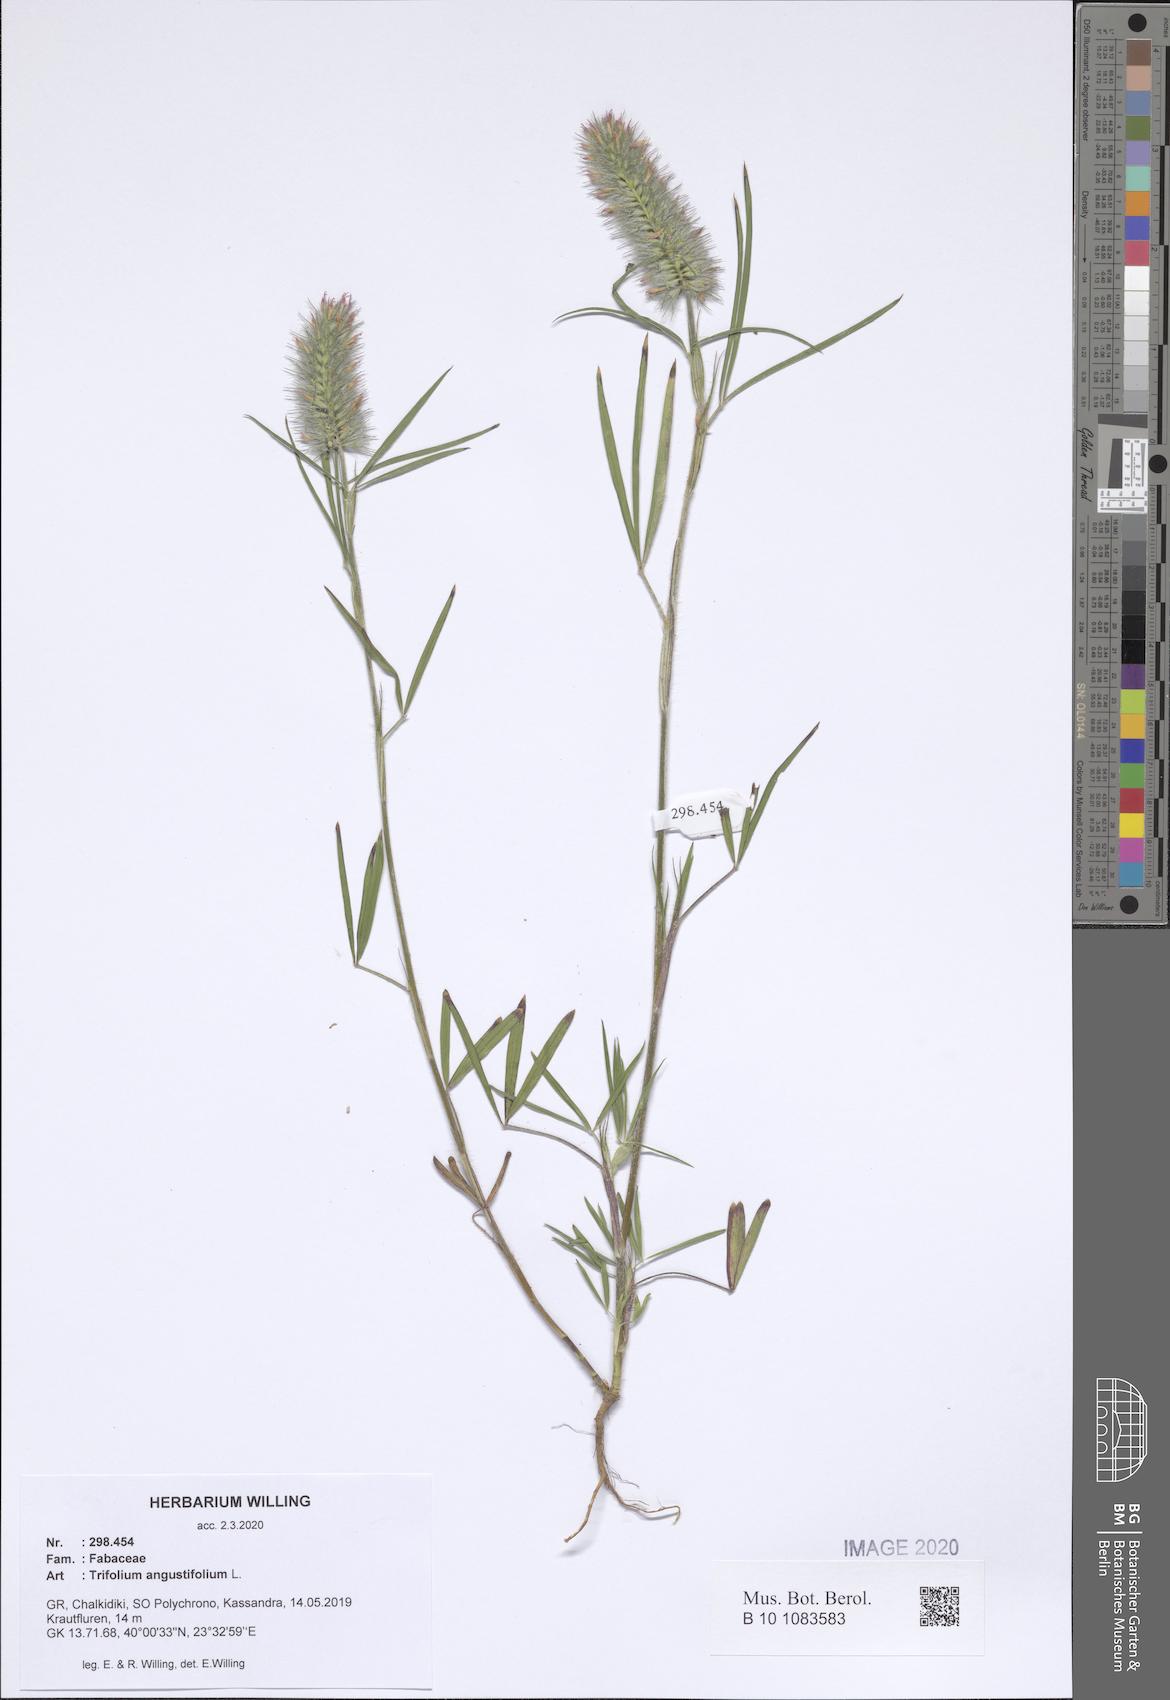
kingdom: Plantae
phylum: Tracheophyta
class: Magnoliopsida
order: Fabales
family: Fabaceae
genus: Trifolium
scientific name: Trifolium angustifolium
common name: Narrow clover
